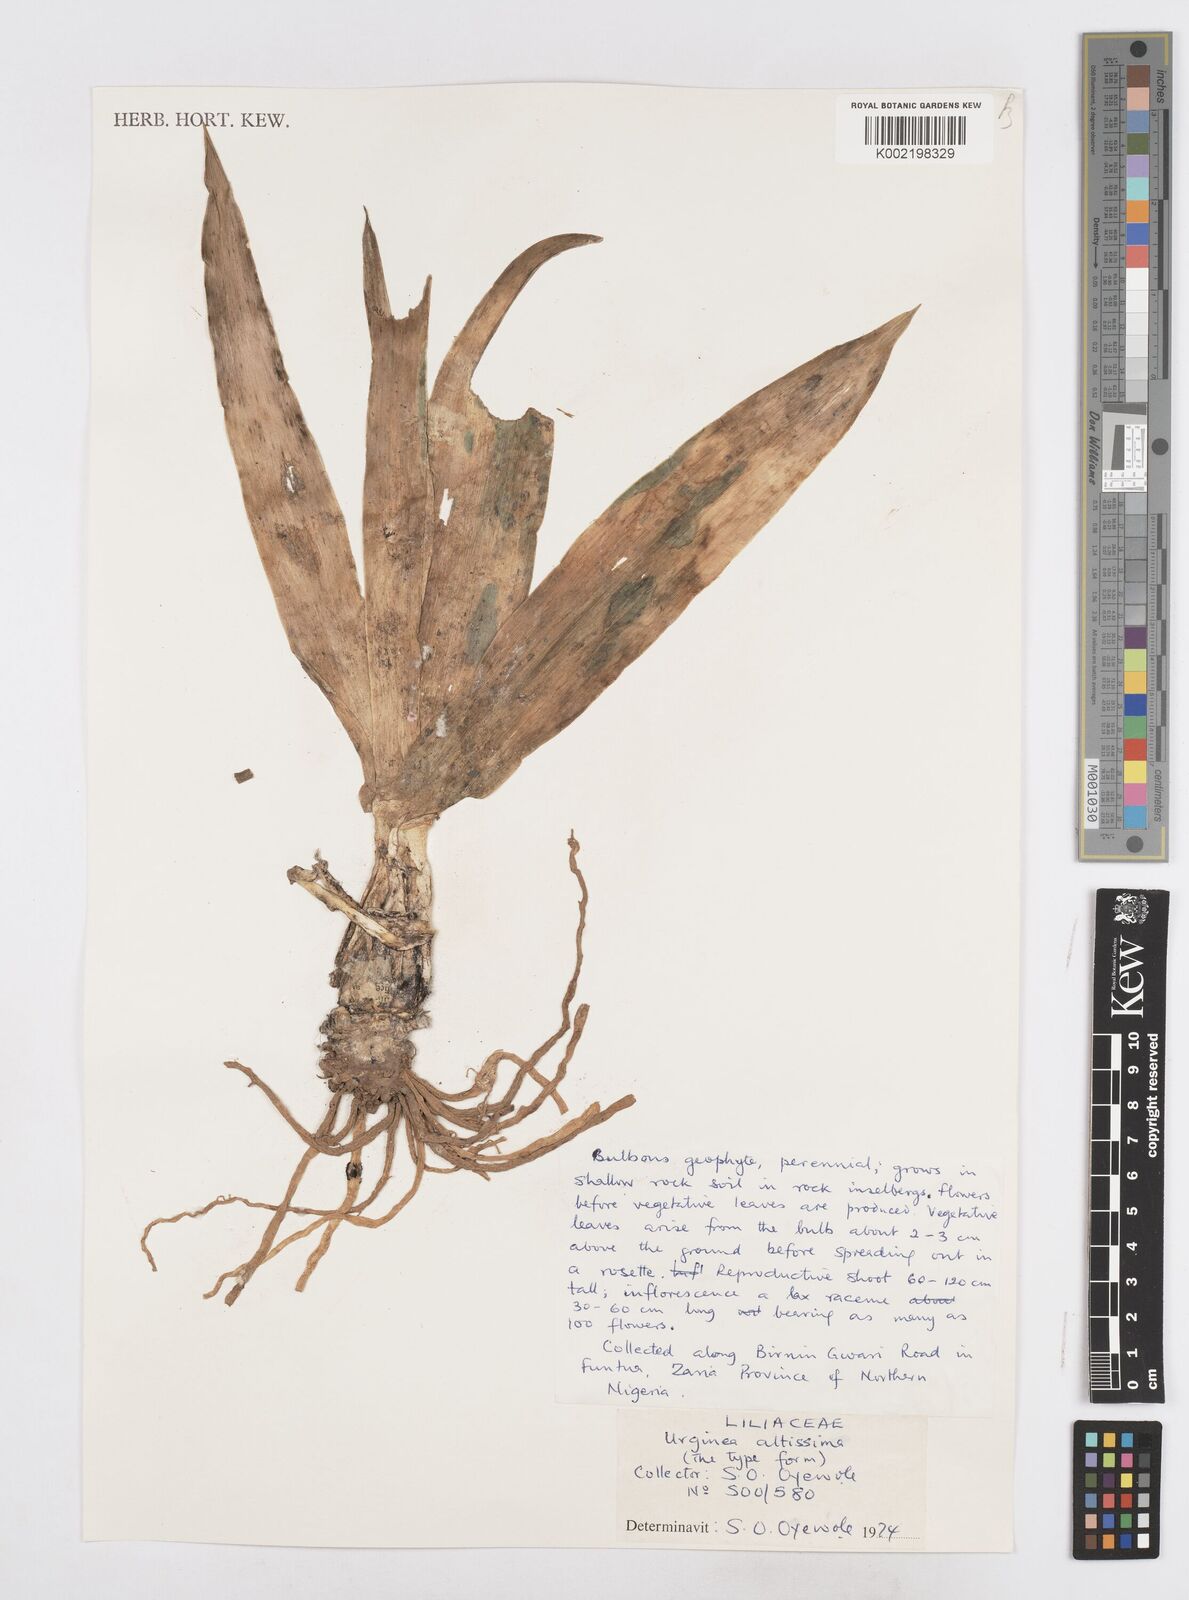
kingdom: Plantae
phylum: Tracheophyta
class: Liliopsida
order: Asparagales
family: Asparagaceae
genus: Drimia
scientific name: Drimia altissima
